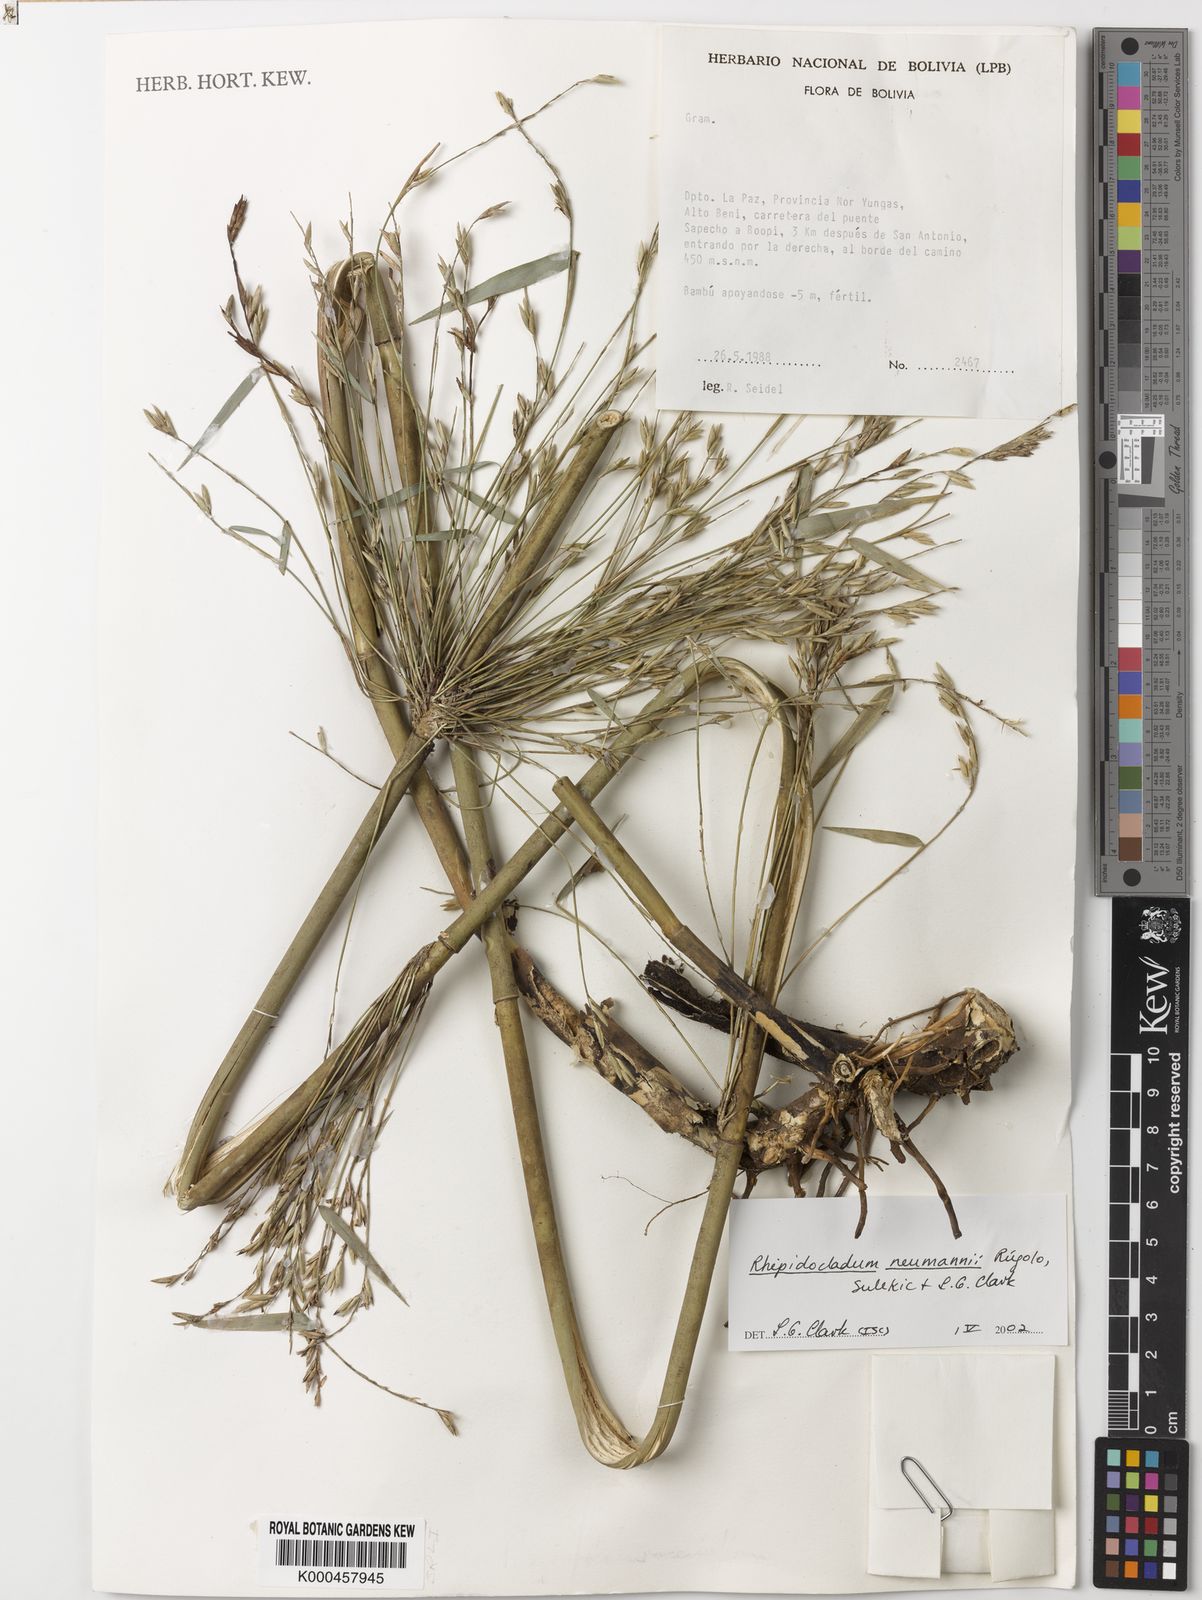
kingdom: Plantae
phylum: Tracheophyta
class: Liliopsida
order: Poales
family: Poaceae
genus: Rhipidocladum
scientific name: Rhipidocladum
